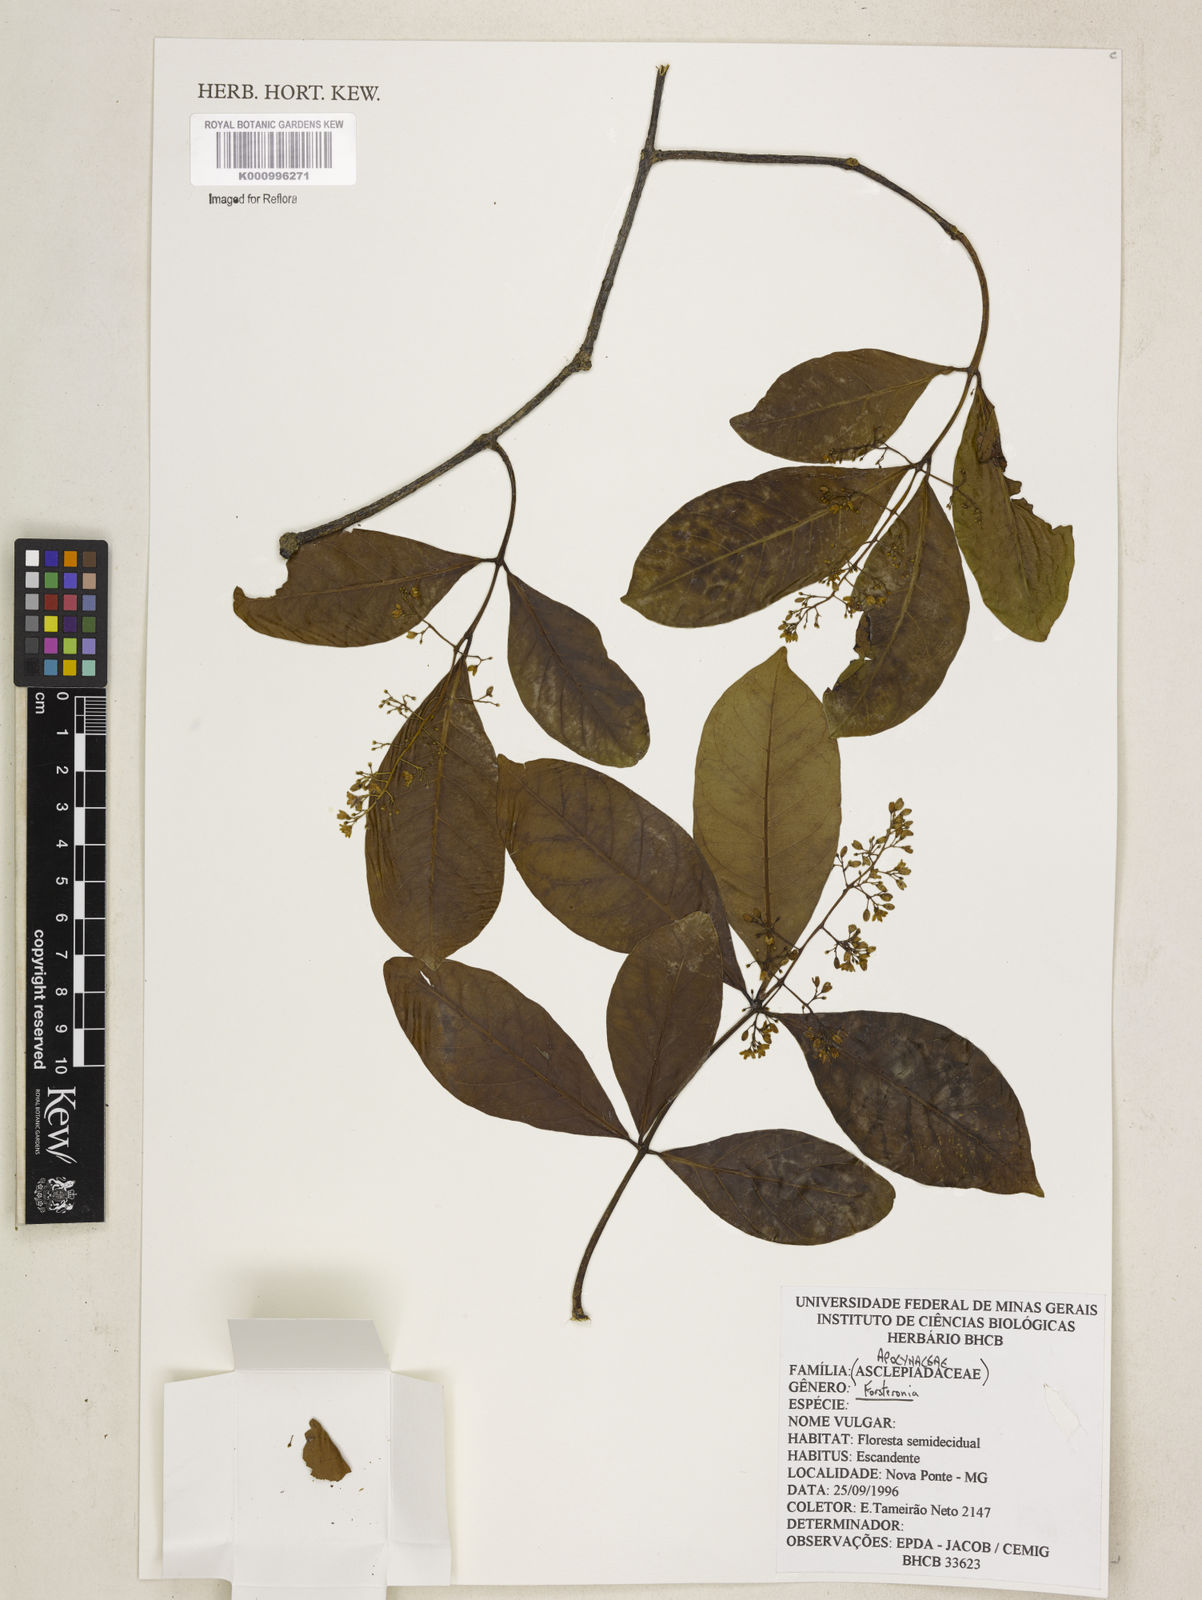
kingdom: Plantae
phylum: Tracheophyta
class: Magnoliopsida
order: Gentianales
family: Apocynaceae
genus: Forsteronia
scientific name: Forsteronia
